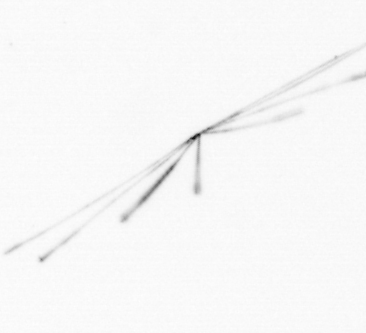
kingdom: Chromista
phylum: Ochrophyta
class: Bacillariophyceae
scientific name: Bacillariophyceae
